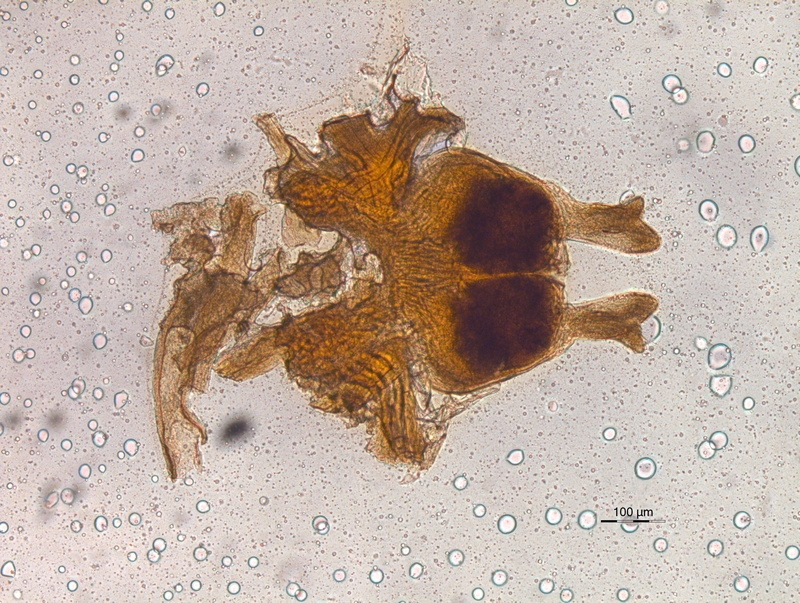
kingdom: Animalia
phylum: Arthropoda
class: Diplopoda
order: Chordeumatida
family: Chordeumatidae
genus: Melogona
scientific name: Melogona voigtii
